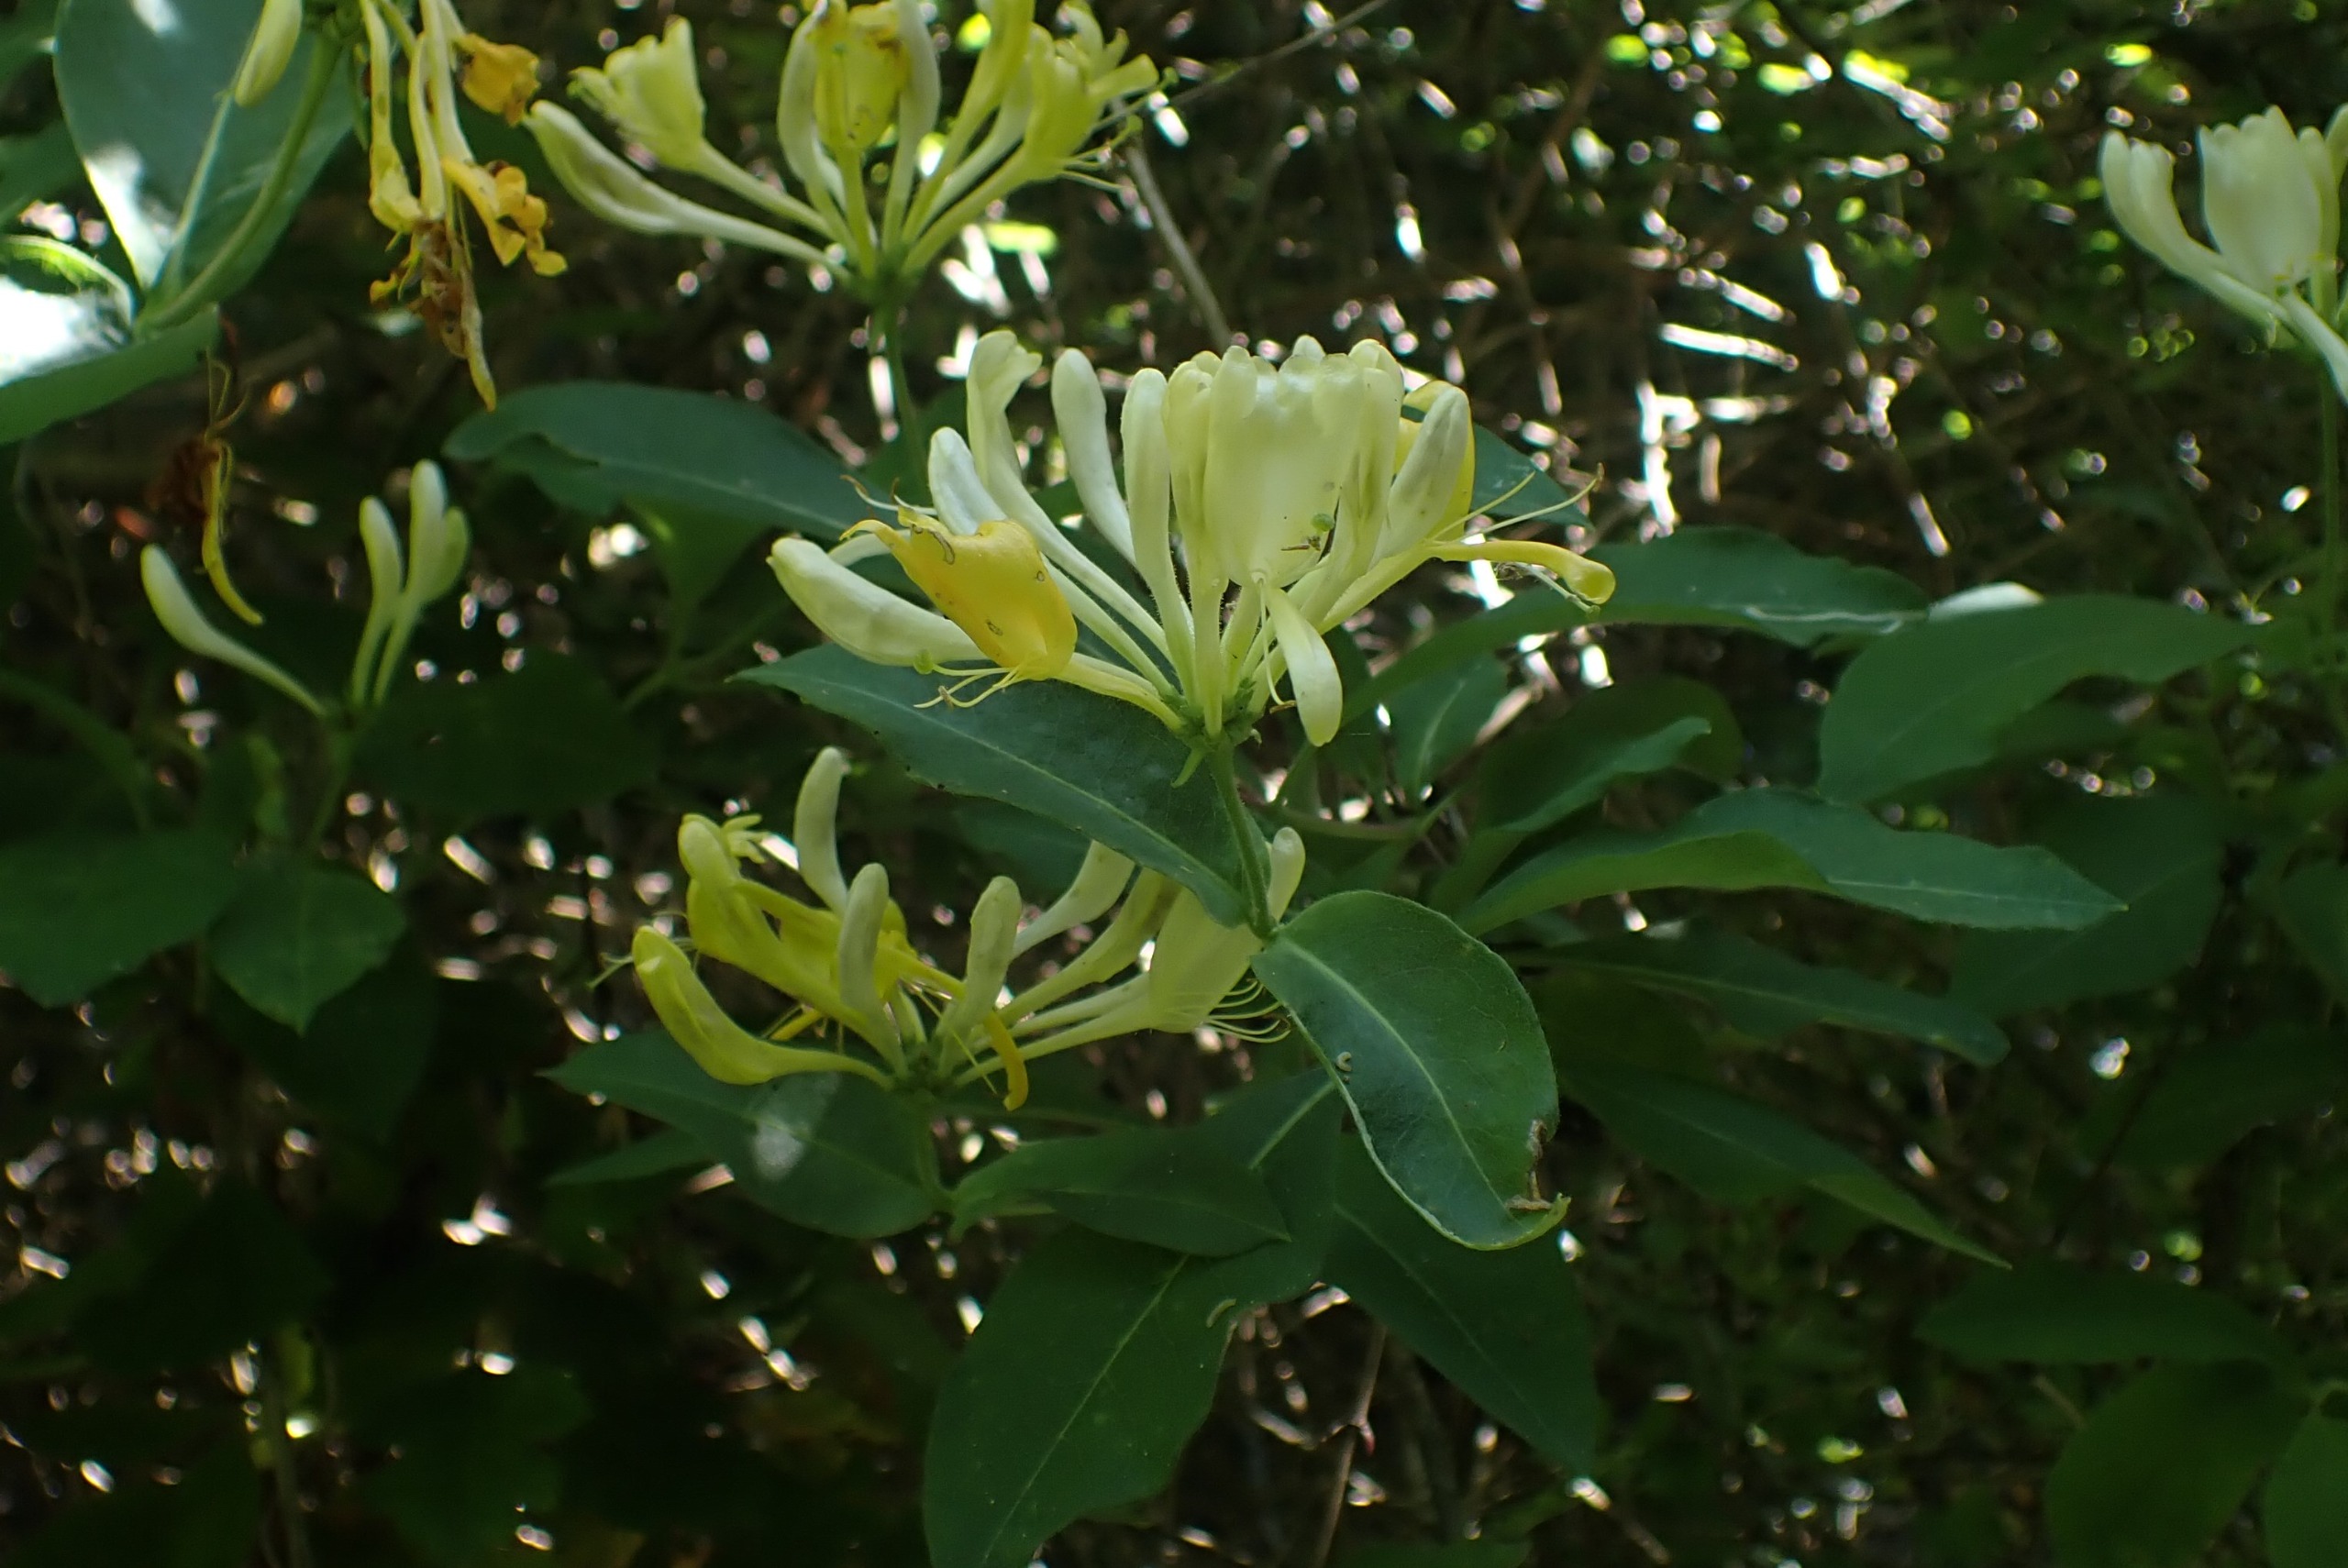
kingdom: Plantae
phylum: Tracheophyta
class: Magnoliopsida
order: Dipsacales
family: Caprifoliaceae
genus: Lonicera
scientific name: Lonicera periclymenum
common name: Almindelig gedeblad
